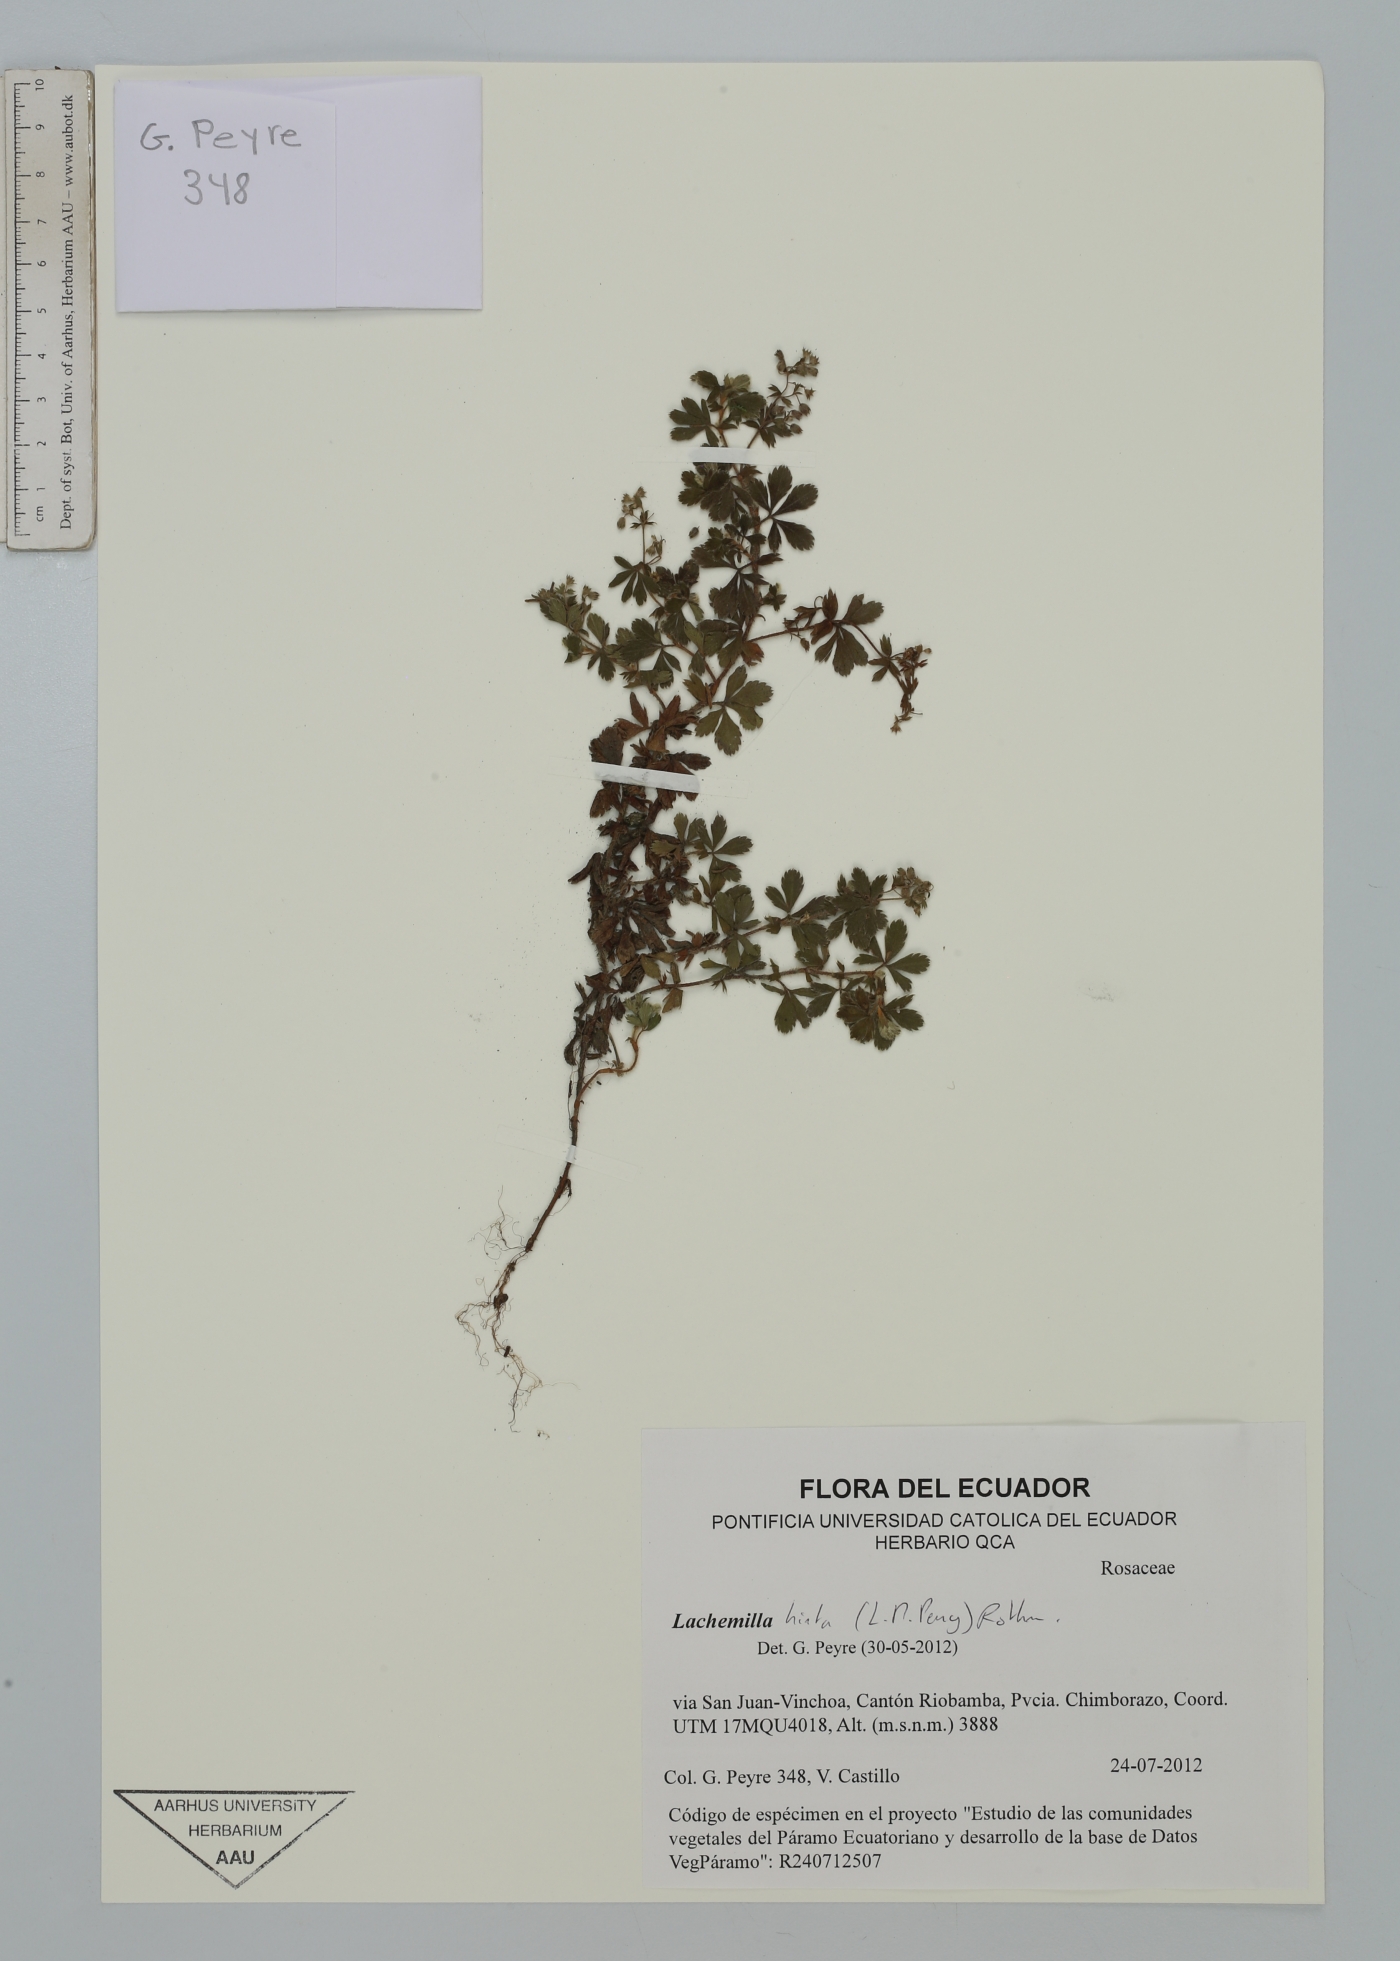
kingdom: Plantae
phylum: Tracheophyta
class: Magnoliopsida
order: Rosales
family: Rosaceae
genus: Lachemilla
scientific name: Lachemilla hirta
